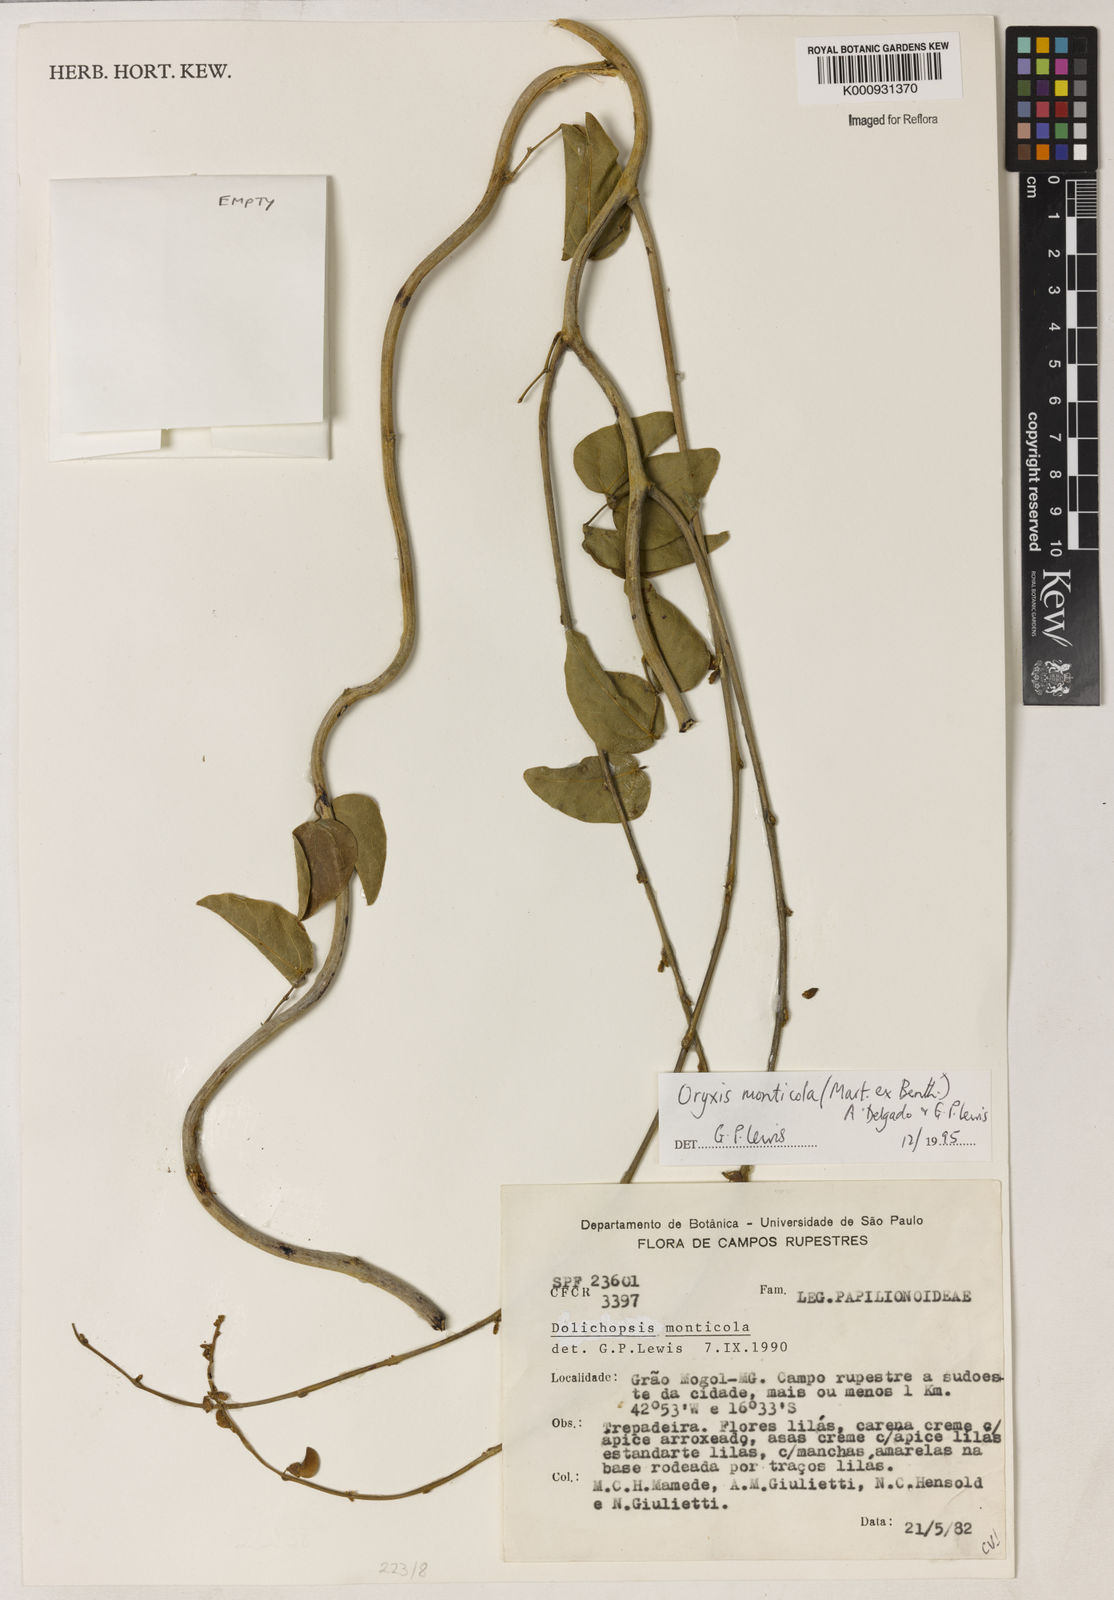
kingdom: Plantae
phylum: Tracheophyta
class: Magnoliopsida
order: Fabales
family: Fabaceae
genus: Dolichopsis
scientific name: Dolichopsis monticola
